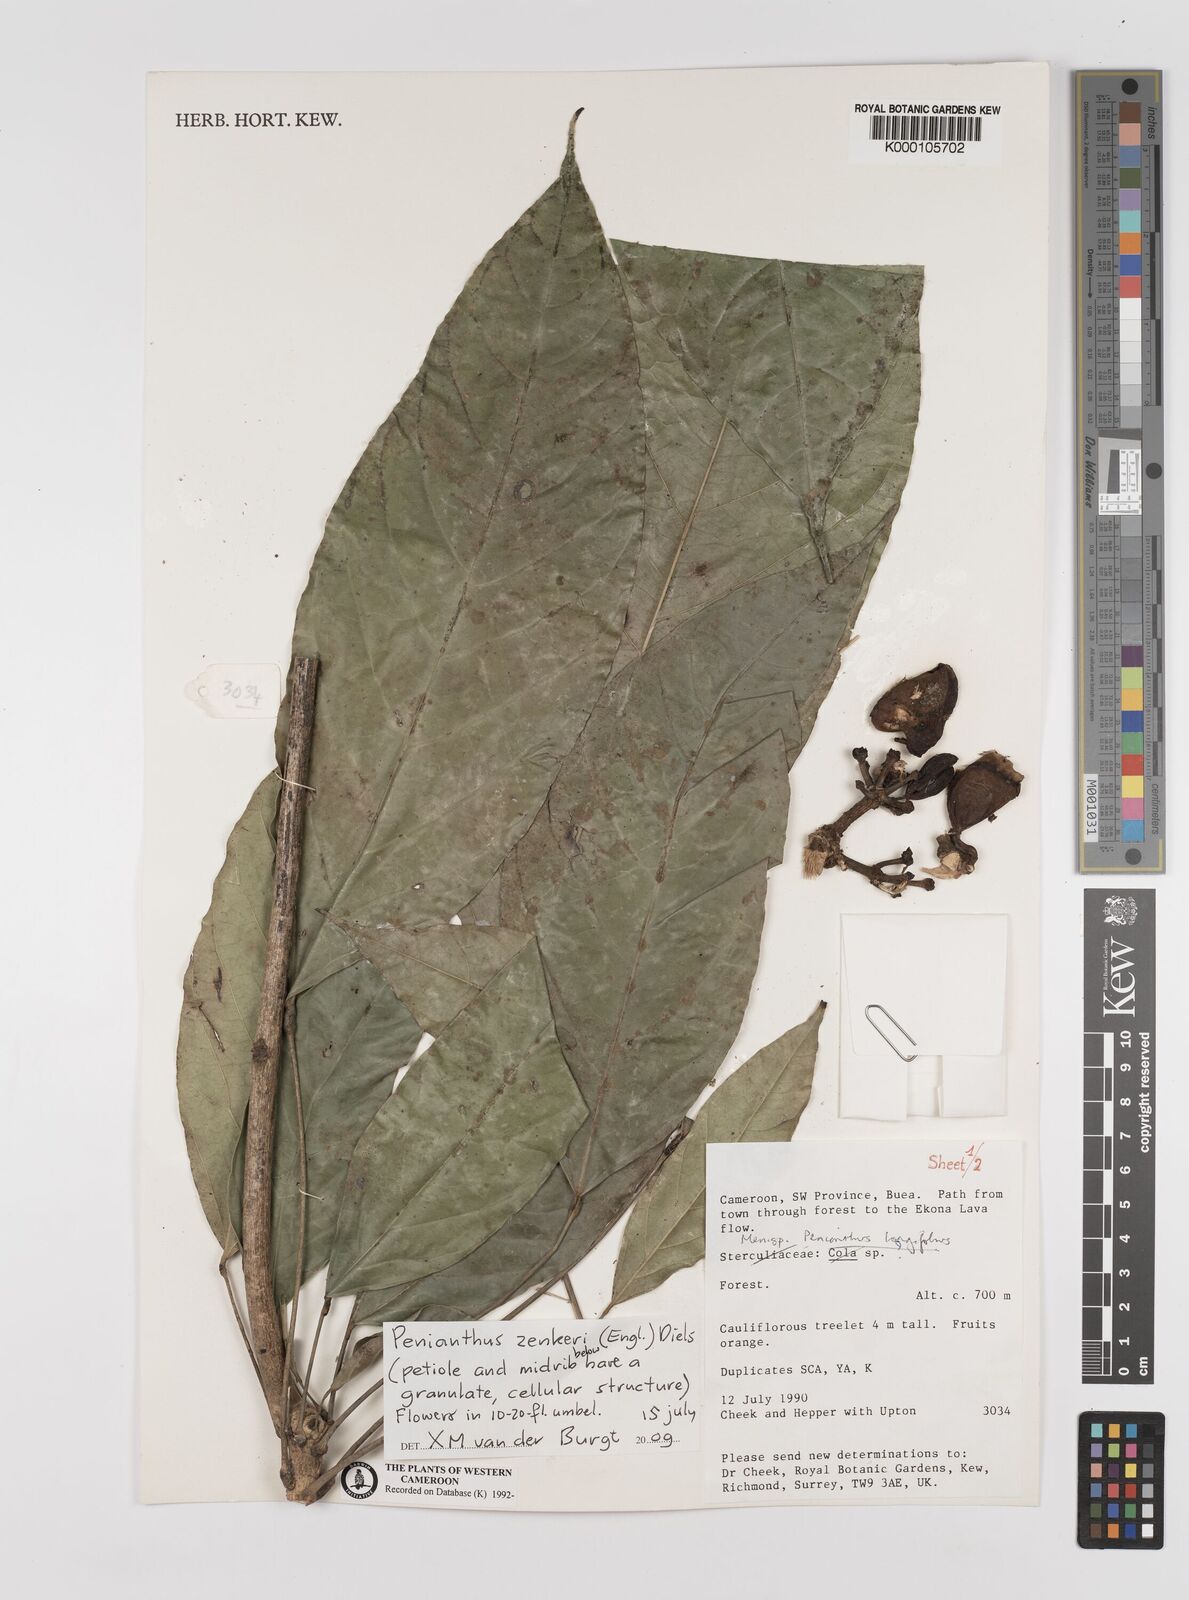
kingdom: Plantae
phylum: Tracheophyta
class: Magnoliopsida
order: Ranunculales
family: Menispermaceae
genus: Penianthus
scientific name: Penianthus zenkeri
